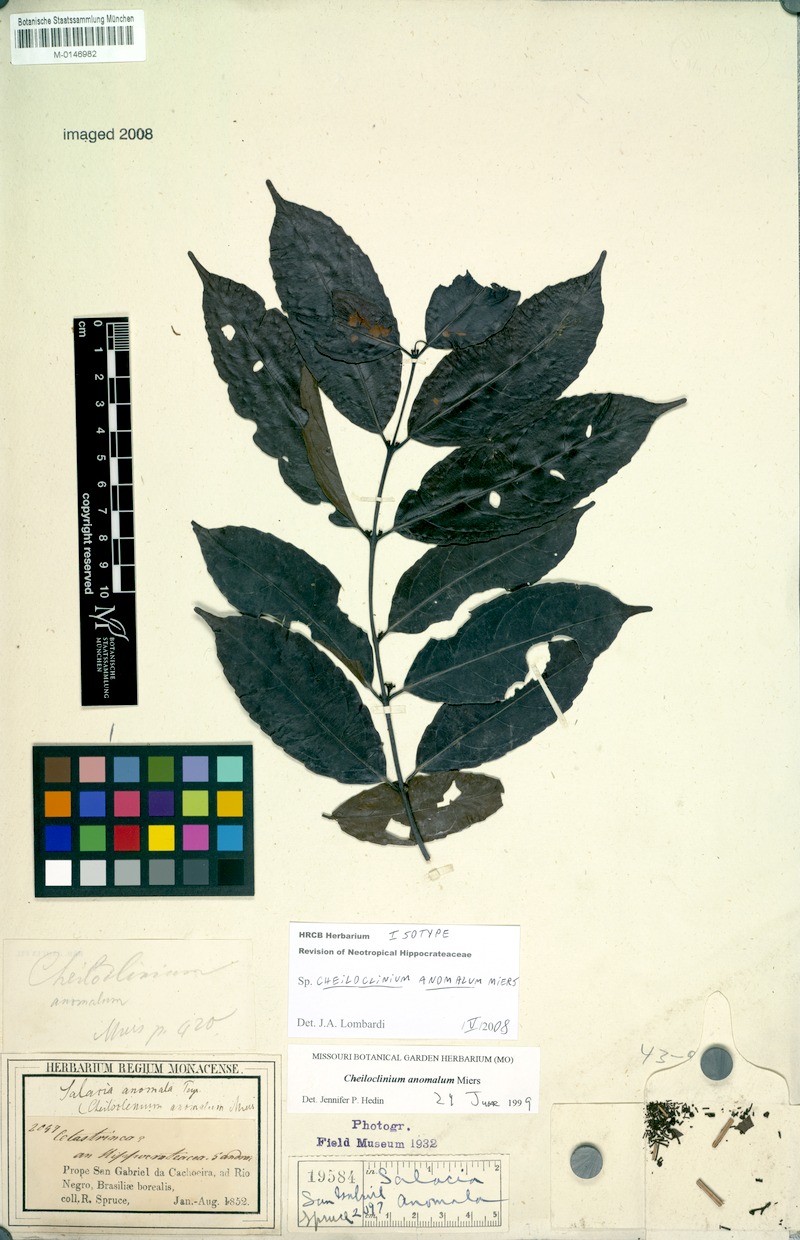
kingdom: Plantae
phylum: Tracheophyta
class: Magnoliopsida
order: Celastrales
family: Celastraceae
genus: Cheiloclinium
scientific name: Cheiloclinium anomalum
